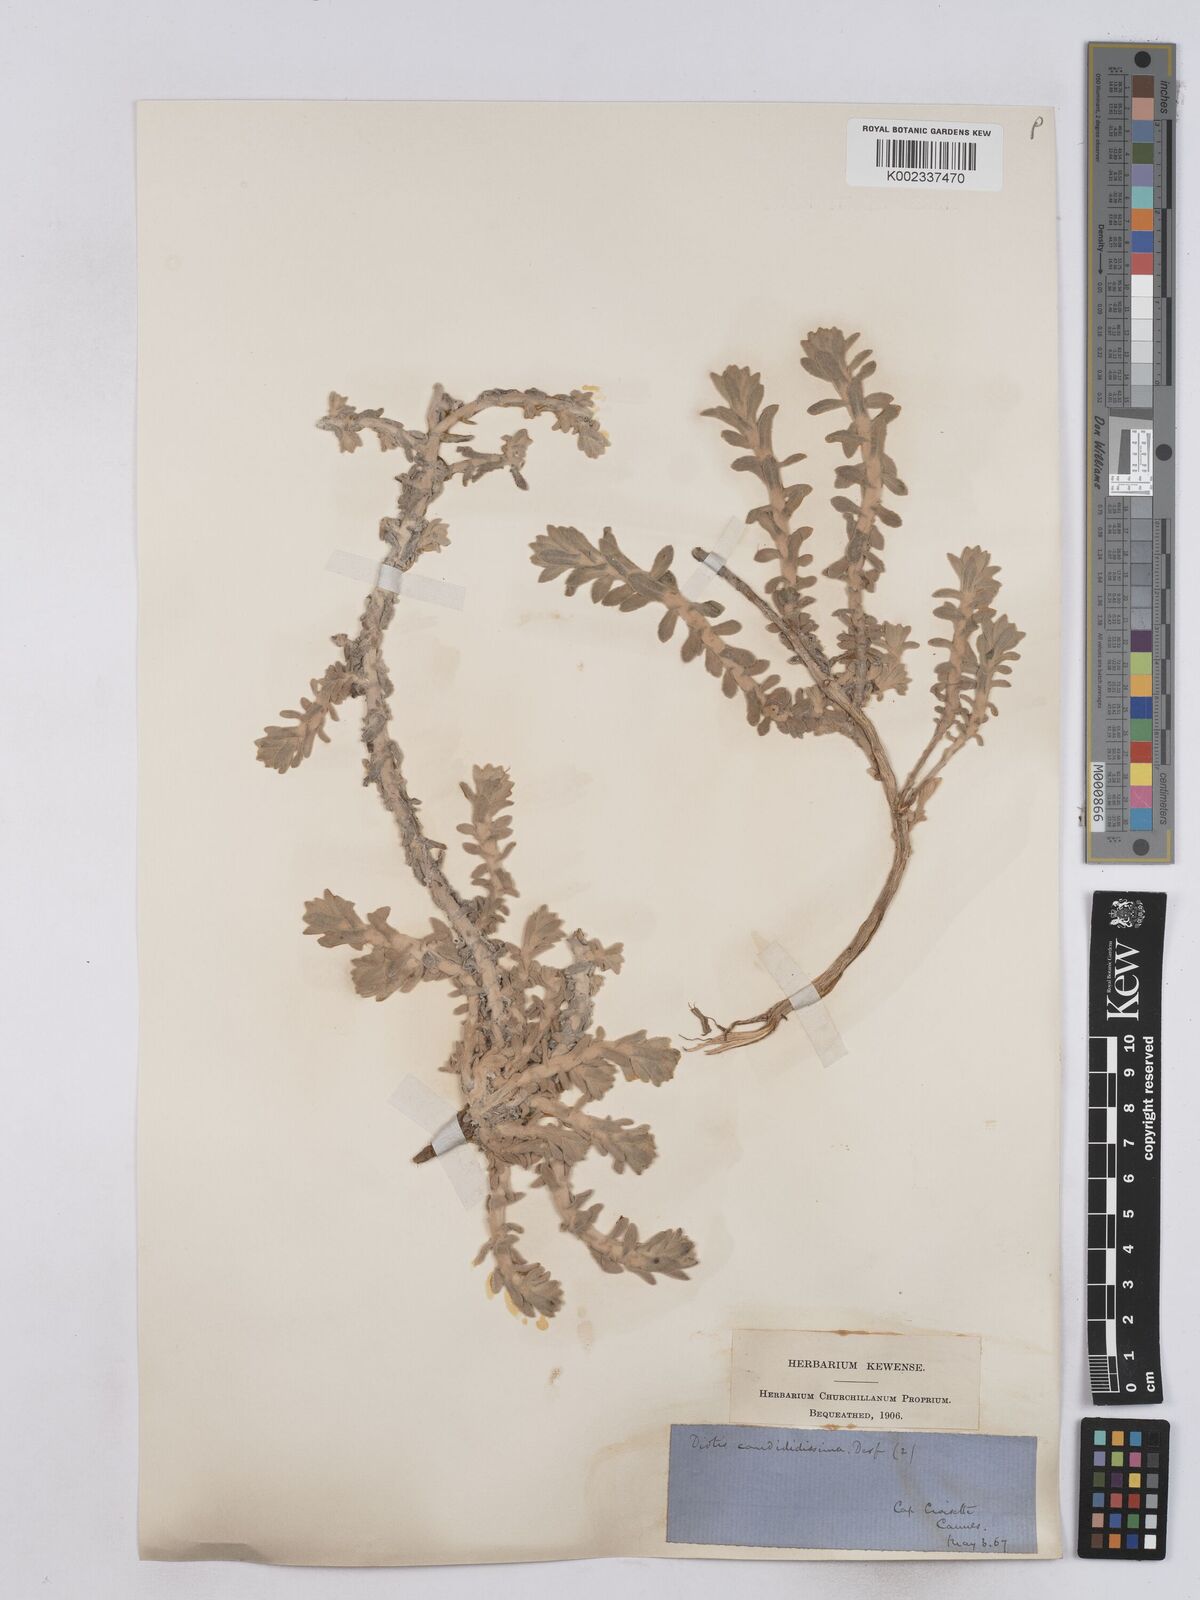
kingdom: Plantae
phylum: Tracheophyta
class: Magnoliopsida
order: Asterales
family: Asteraceae
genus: Achillea
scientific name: Achillea maritima
